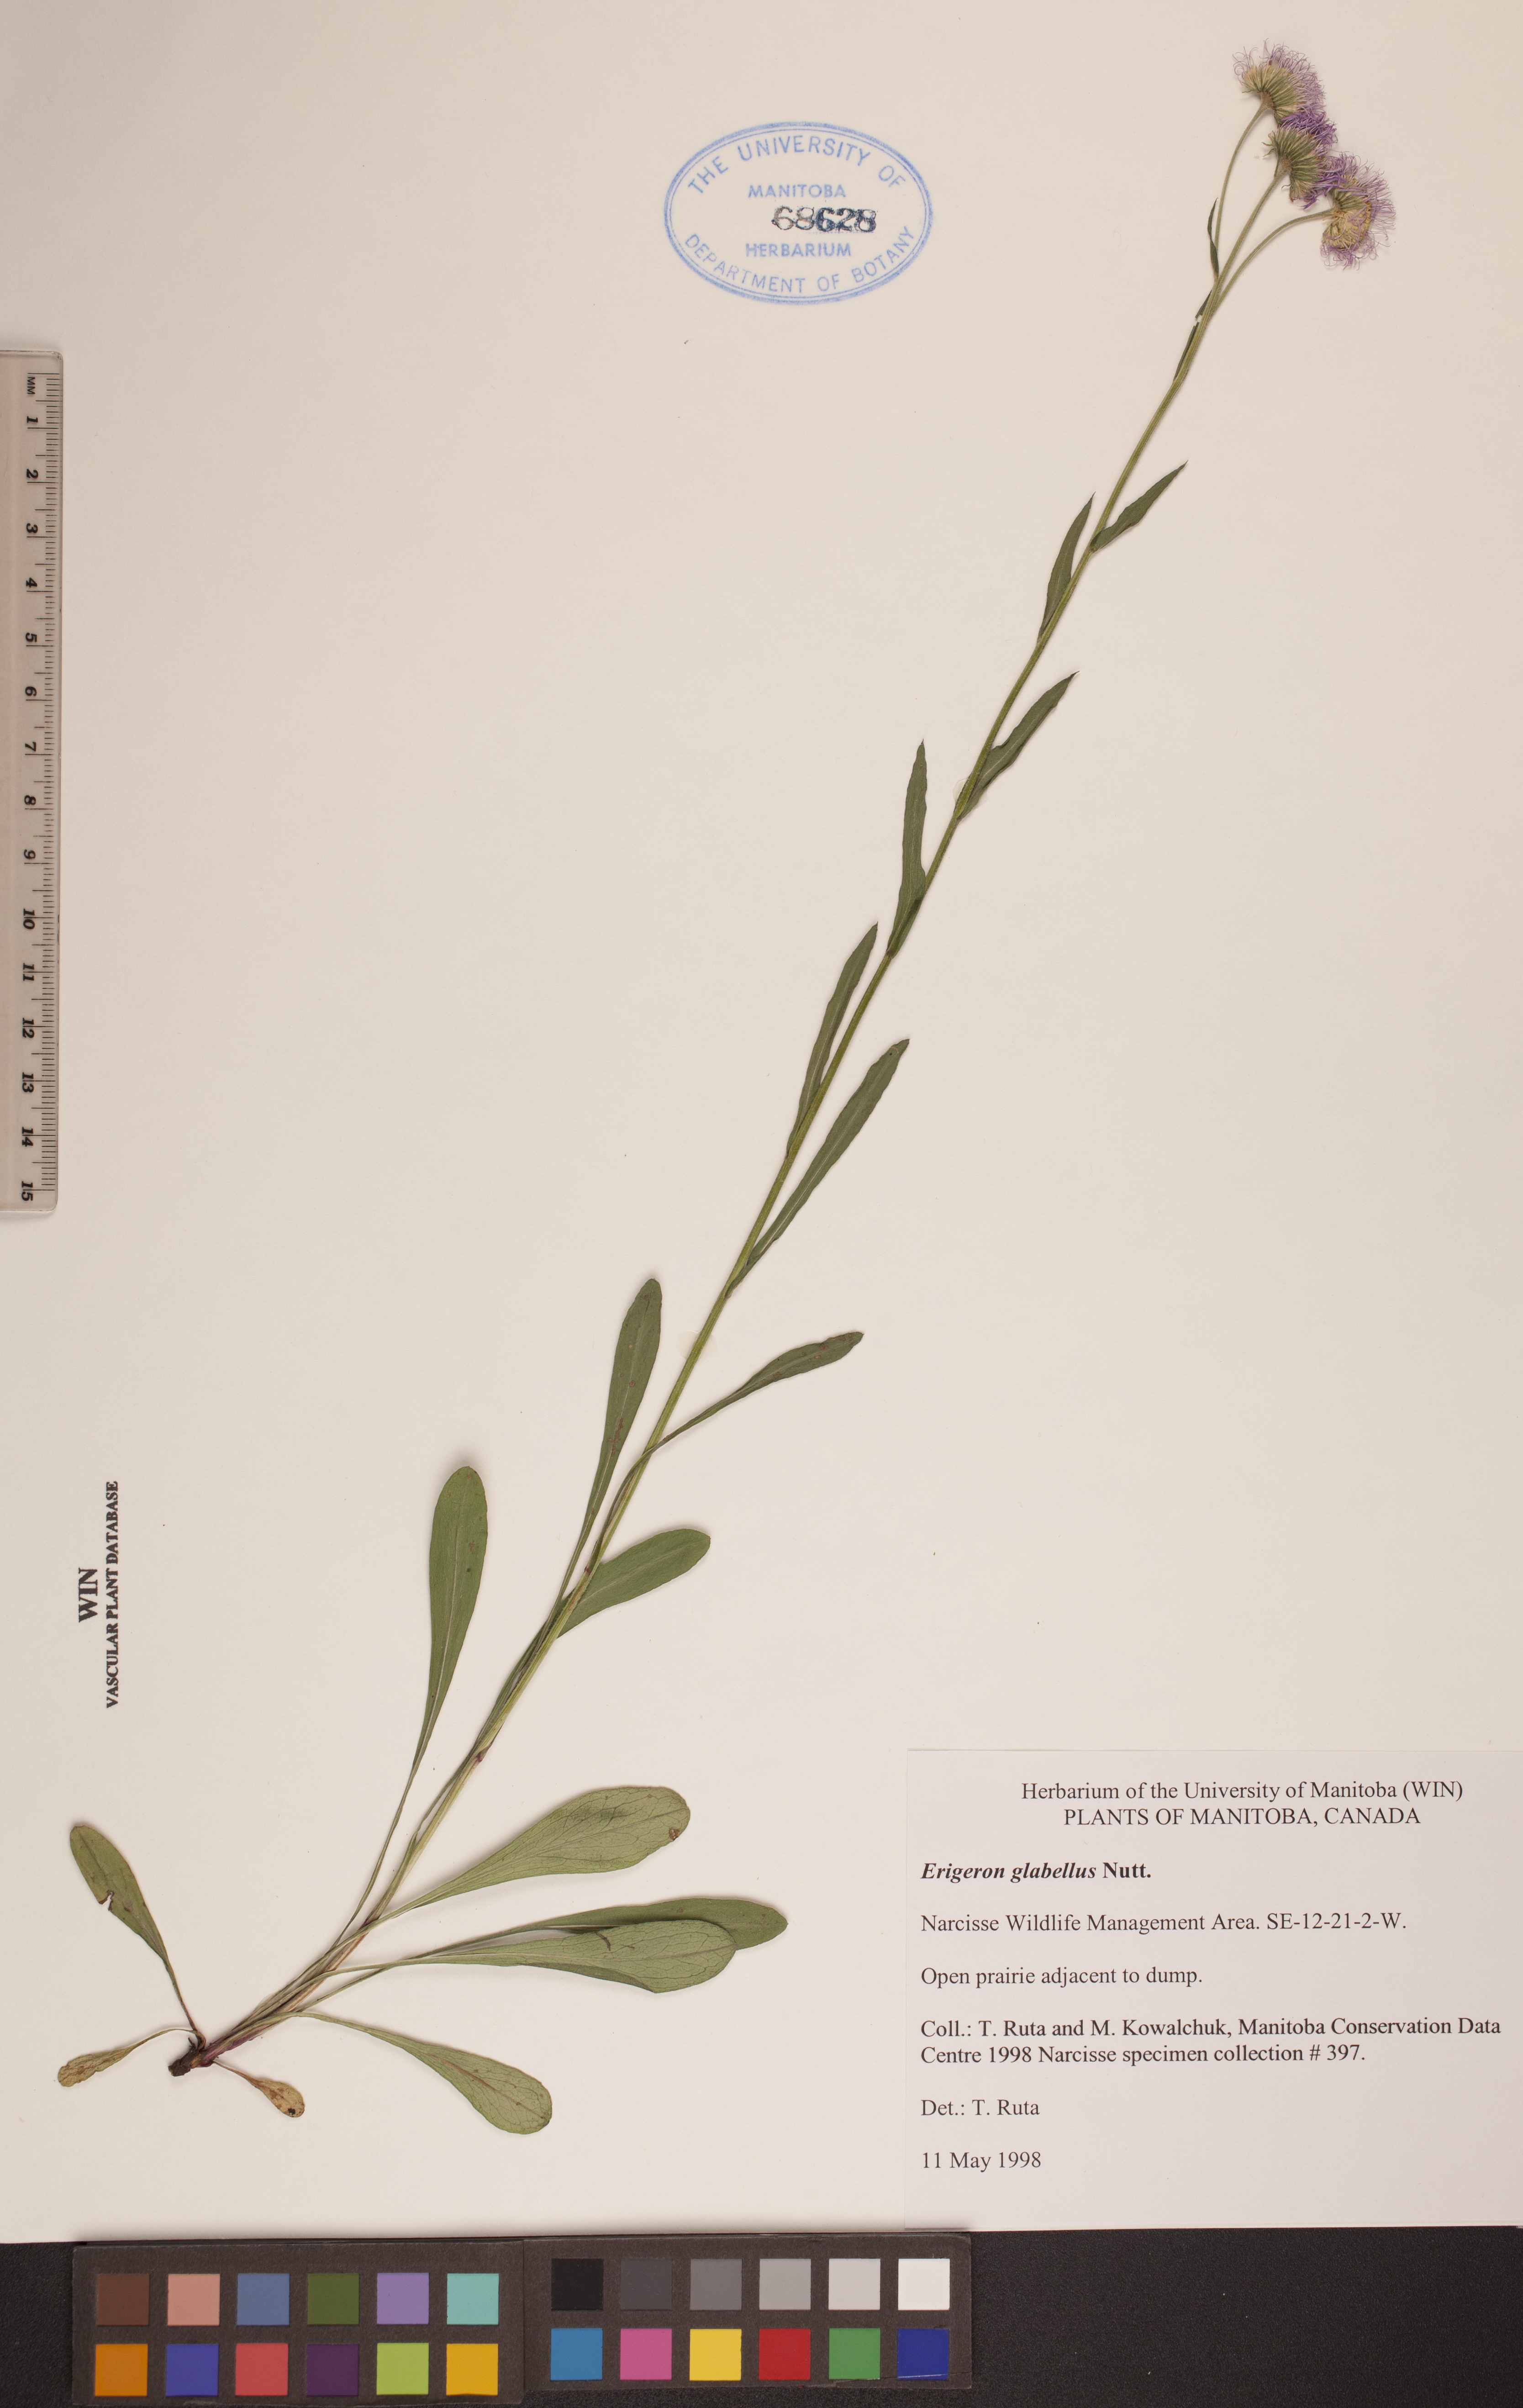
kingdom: Plantae
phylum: Tracheophyta
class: Magnoliopsida
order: Asterales
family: Asteraceae
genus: Erigeron
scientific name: Erigeron glabellus
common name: Smooth fleabane
